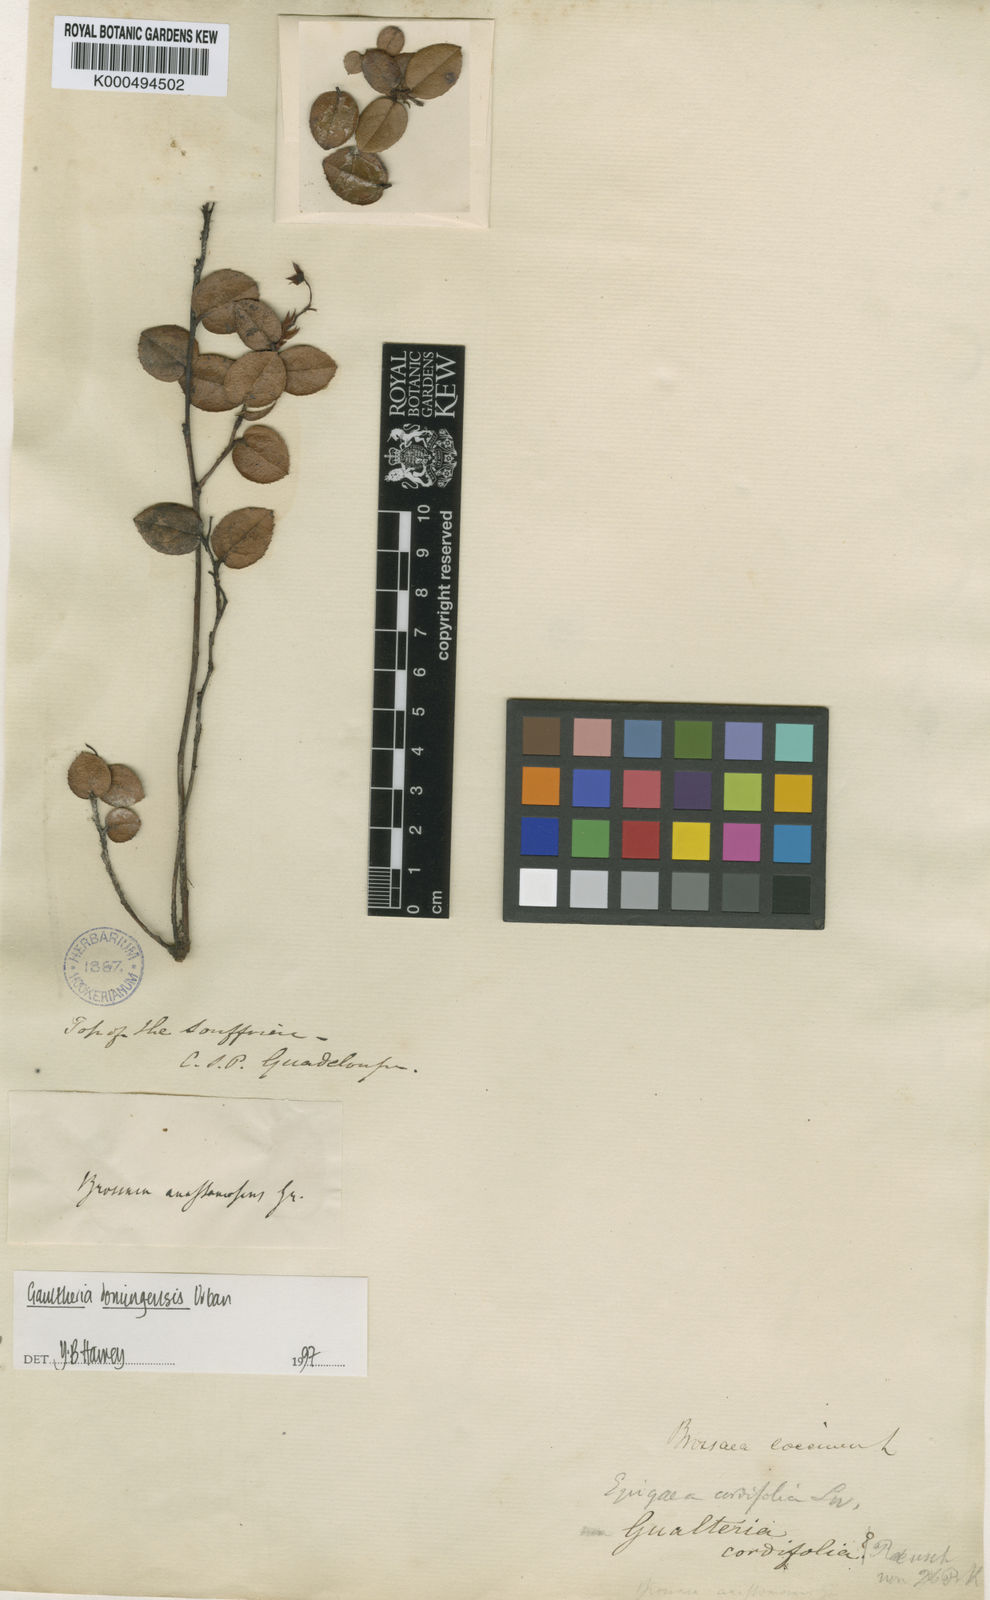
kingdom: Plantae
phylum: Tracheophyta
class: Magnoliopsida
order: Ericales
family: Ericaceae
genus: Gaultheria
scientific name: Gaultheria domingensis
